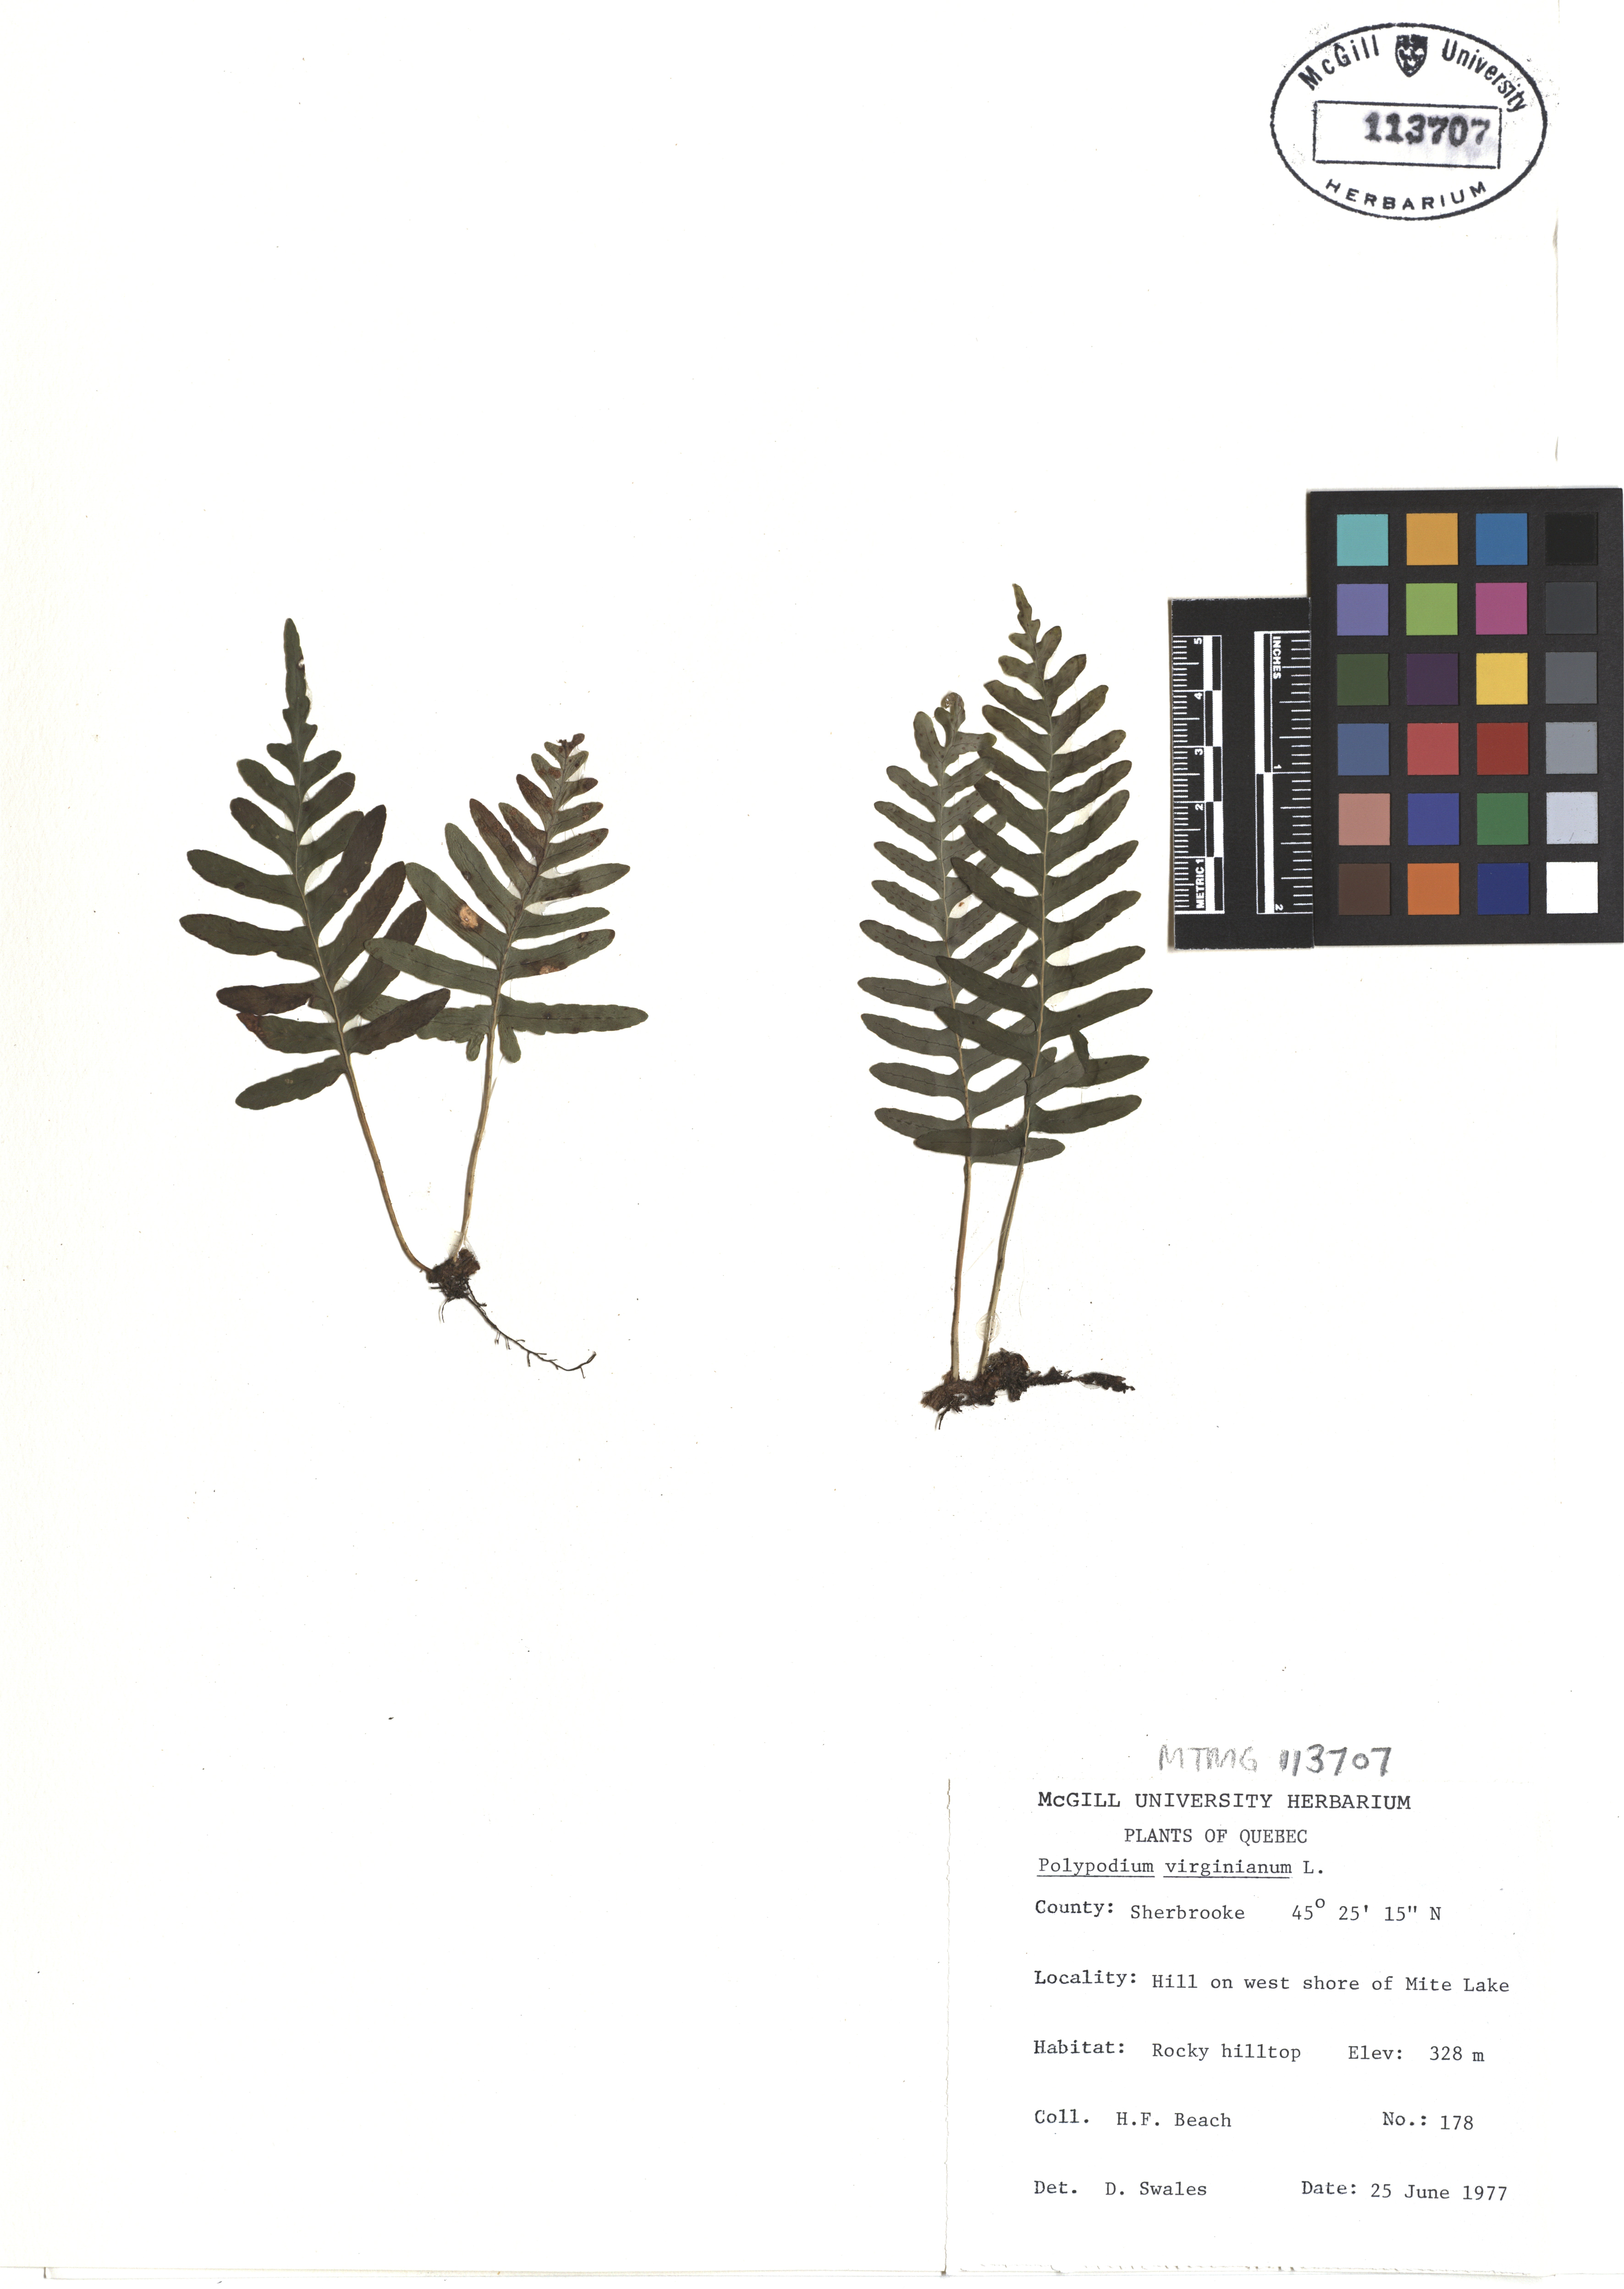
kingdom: Plantae
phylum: Tracheophyta
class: Polypodiopsida
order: Polypodiales
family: Polypodiaceae
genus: Polypodium
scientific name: Polypodium virginianum
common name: American wall fern
